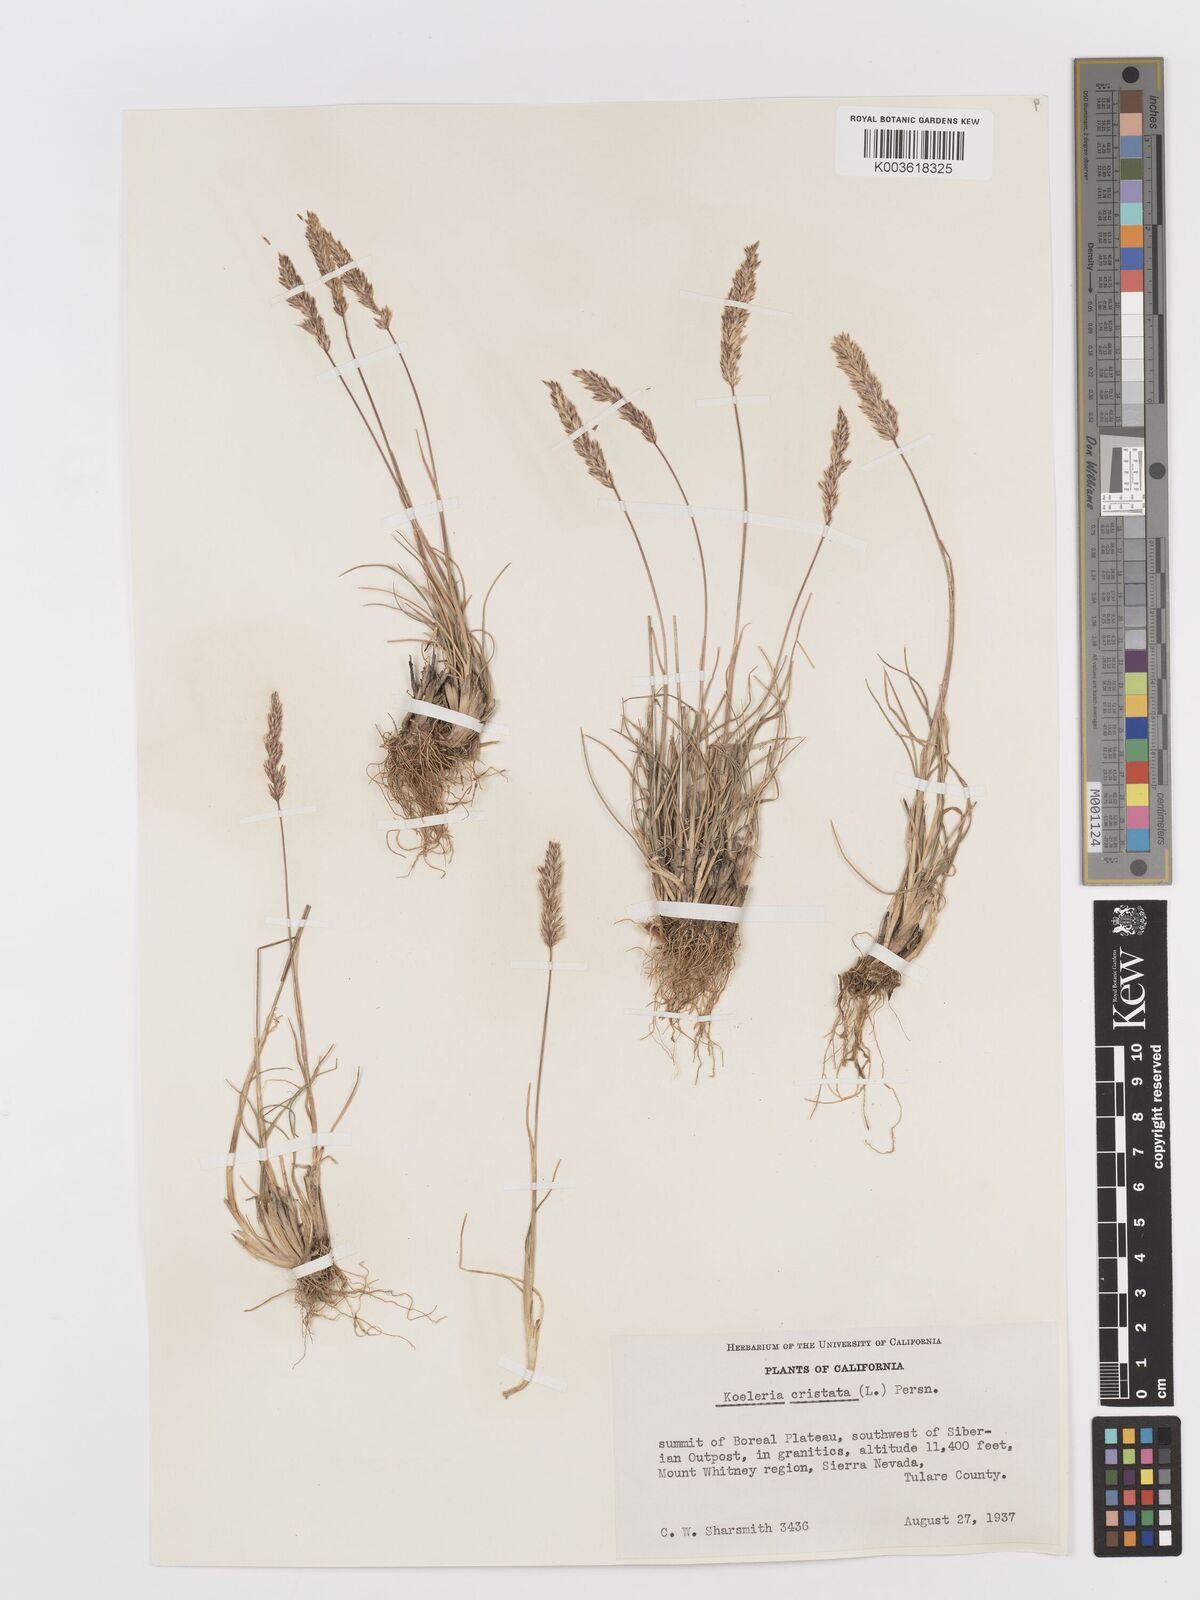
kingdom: Plantae
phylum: Tracheophyta
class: Liliopsida
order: Poales
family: Poaceae
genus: Koeleria
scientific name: Koeleria
